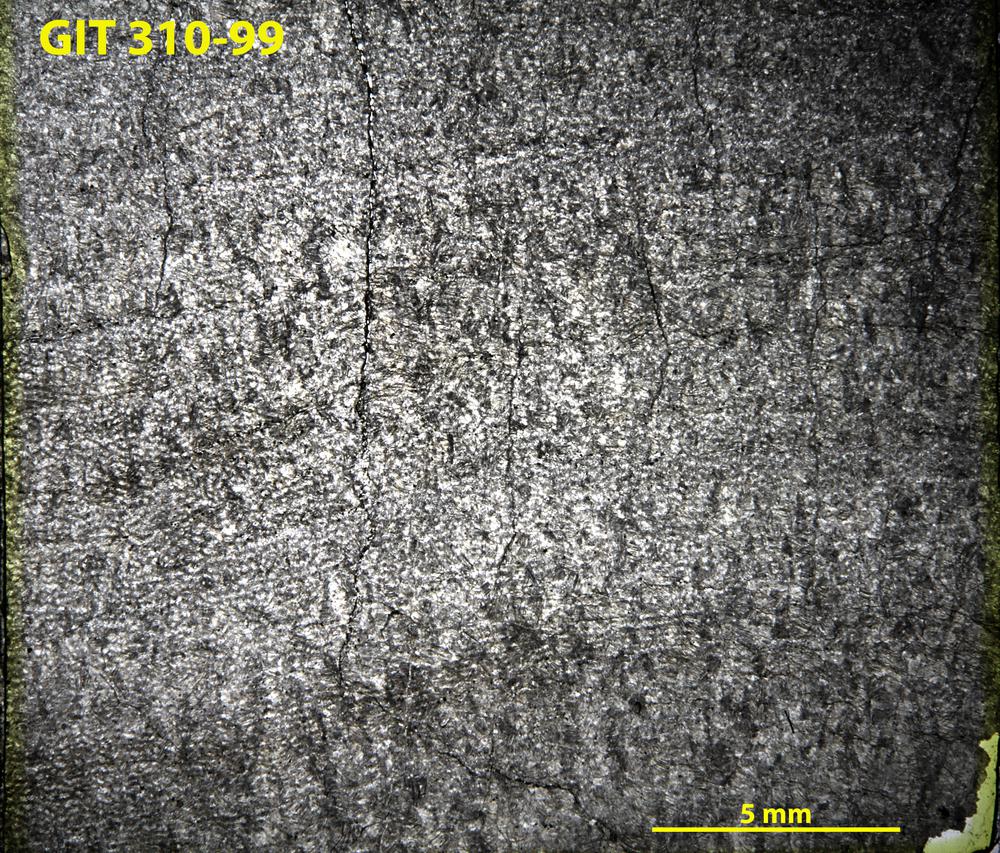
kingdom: Animalia
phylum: Porifera
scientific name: Porifera
